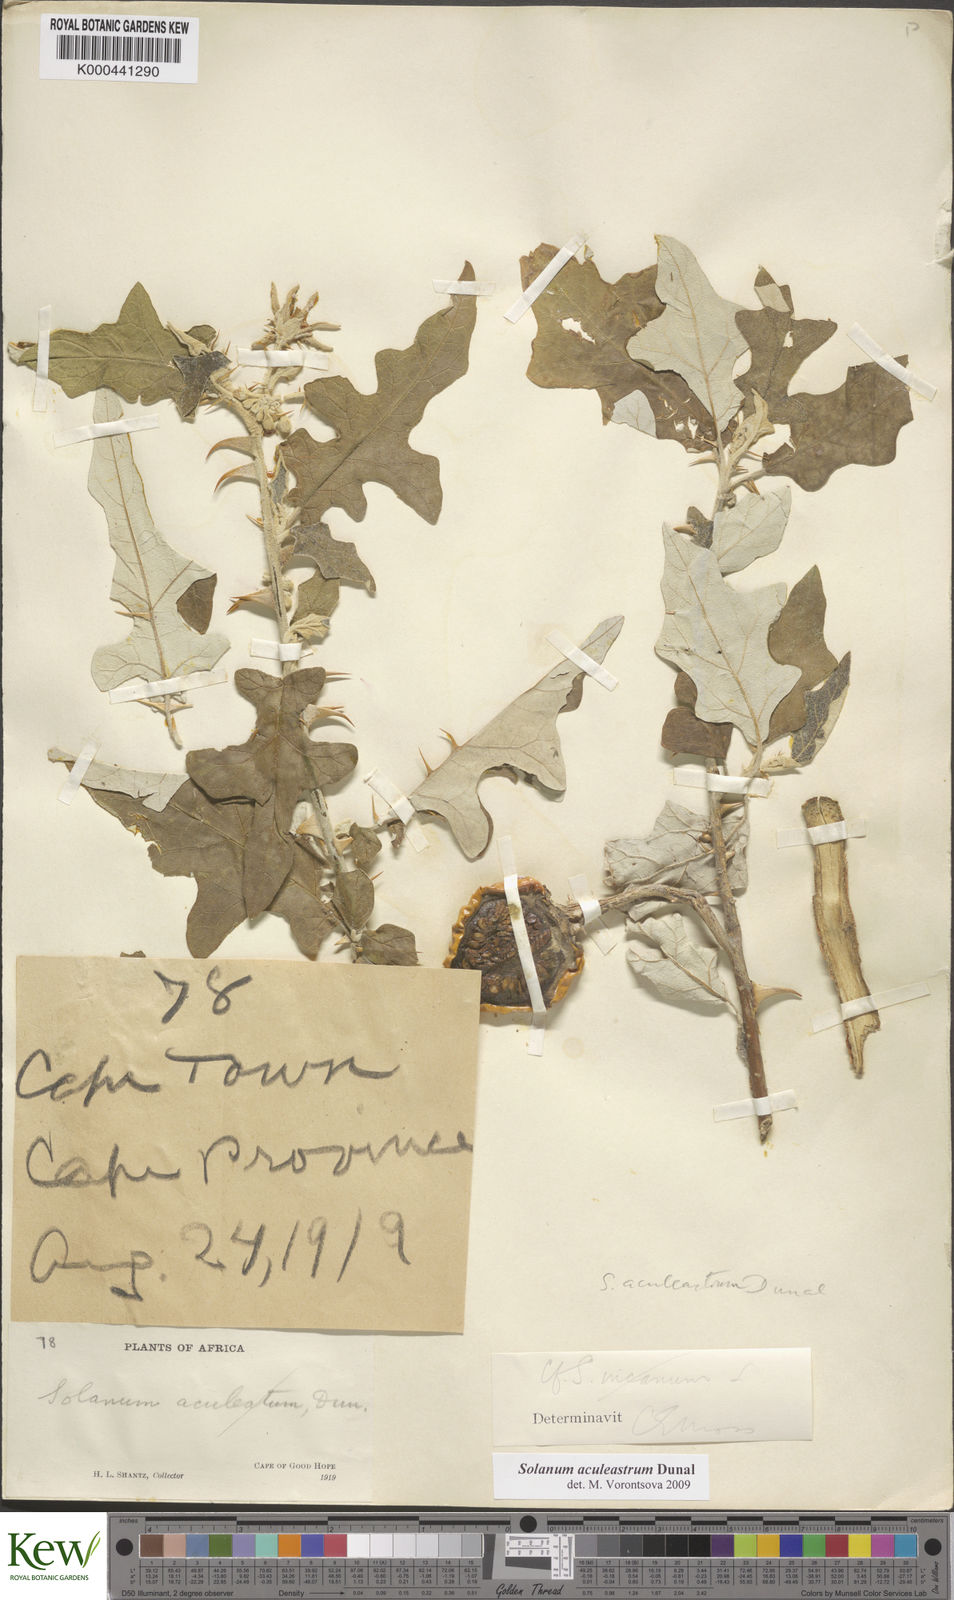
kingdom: Plantae
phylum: Tracheophyta
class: Magnoliopsida
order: Solanales
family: Solanaceae
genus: Solanum
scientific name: Solanum aculeastrum
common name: Goat bitter-apple
